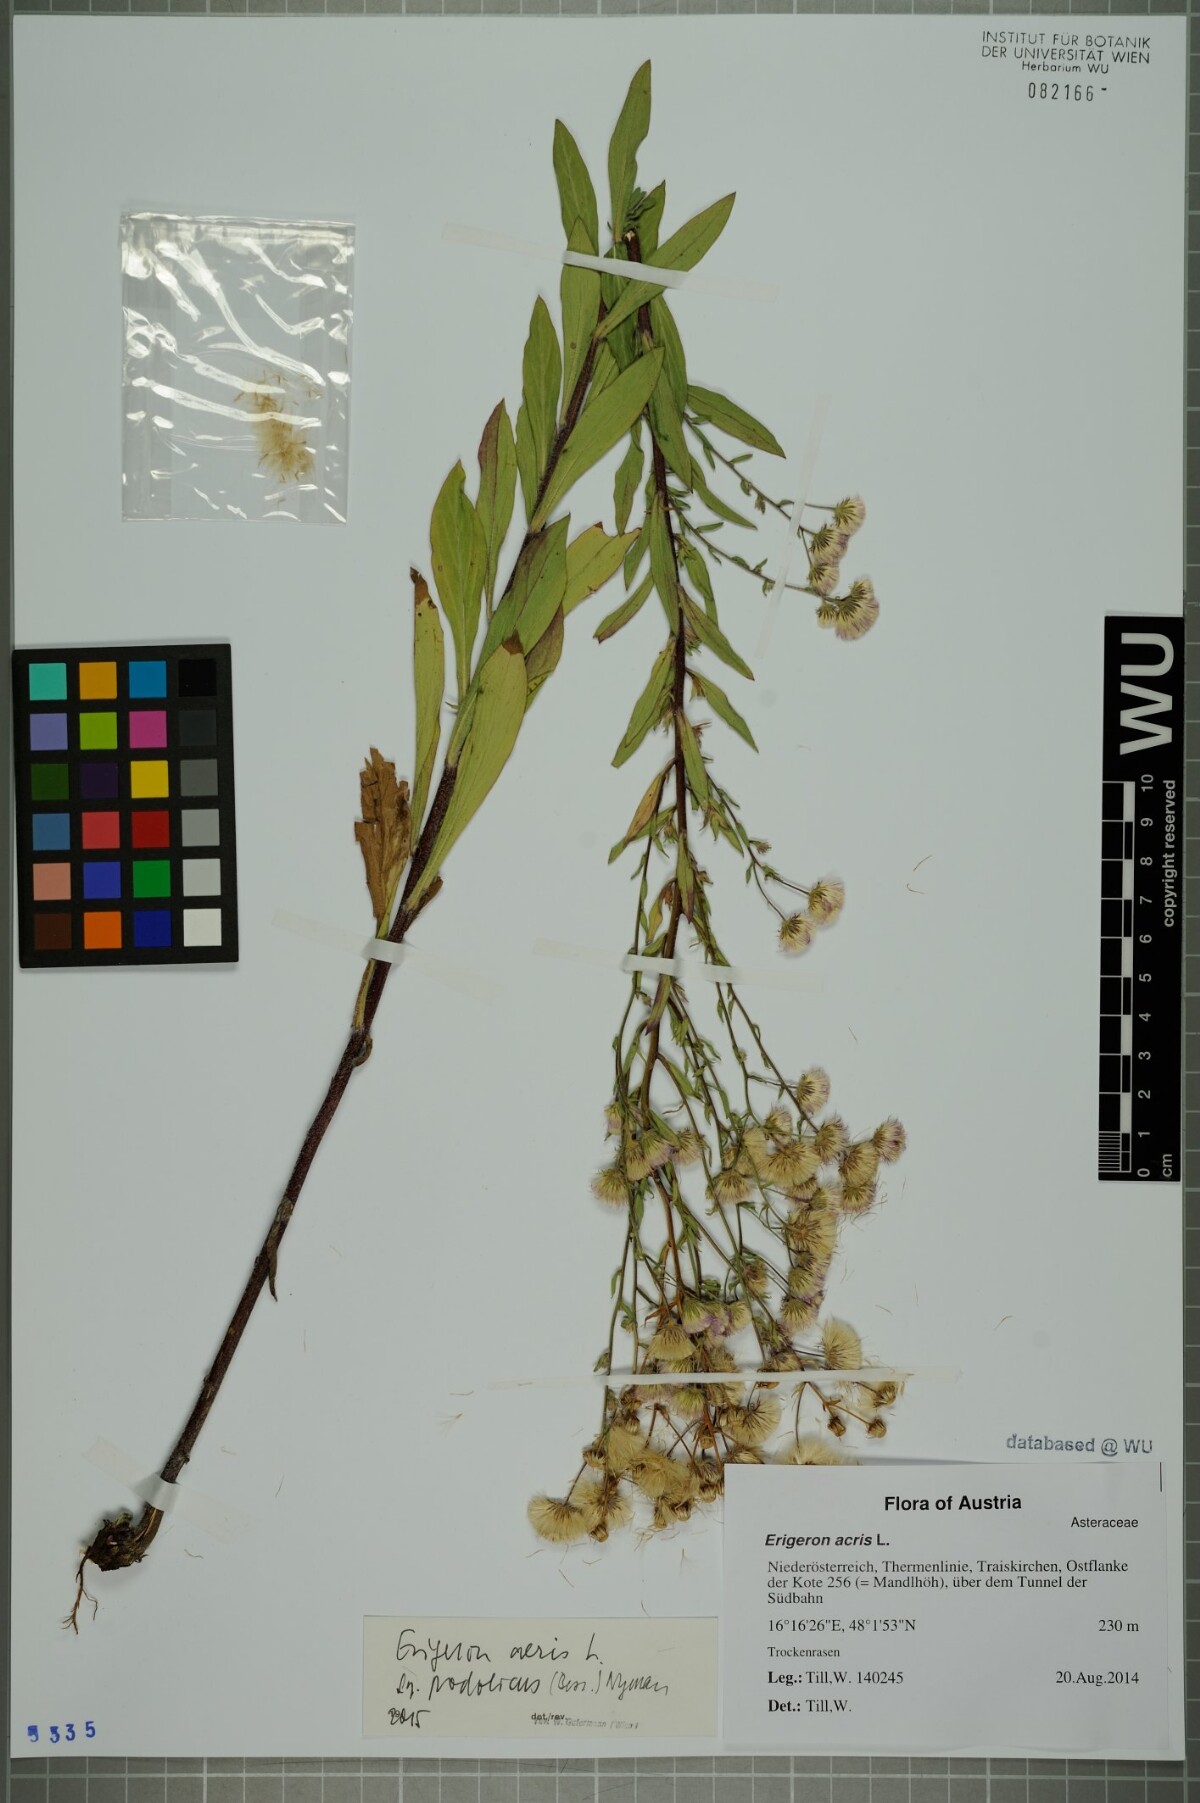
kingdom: Plantae
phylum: Tracheophyta
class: Magnoliopsida
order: Asterales
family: Asteraceae
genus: Erigeron
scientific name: Erigeron podolicus
